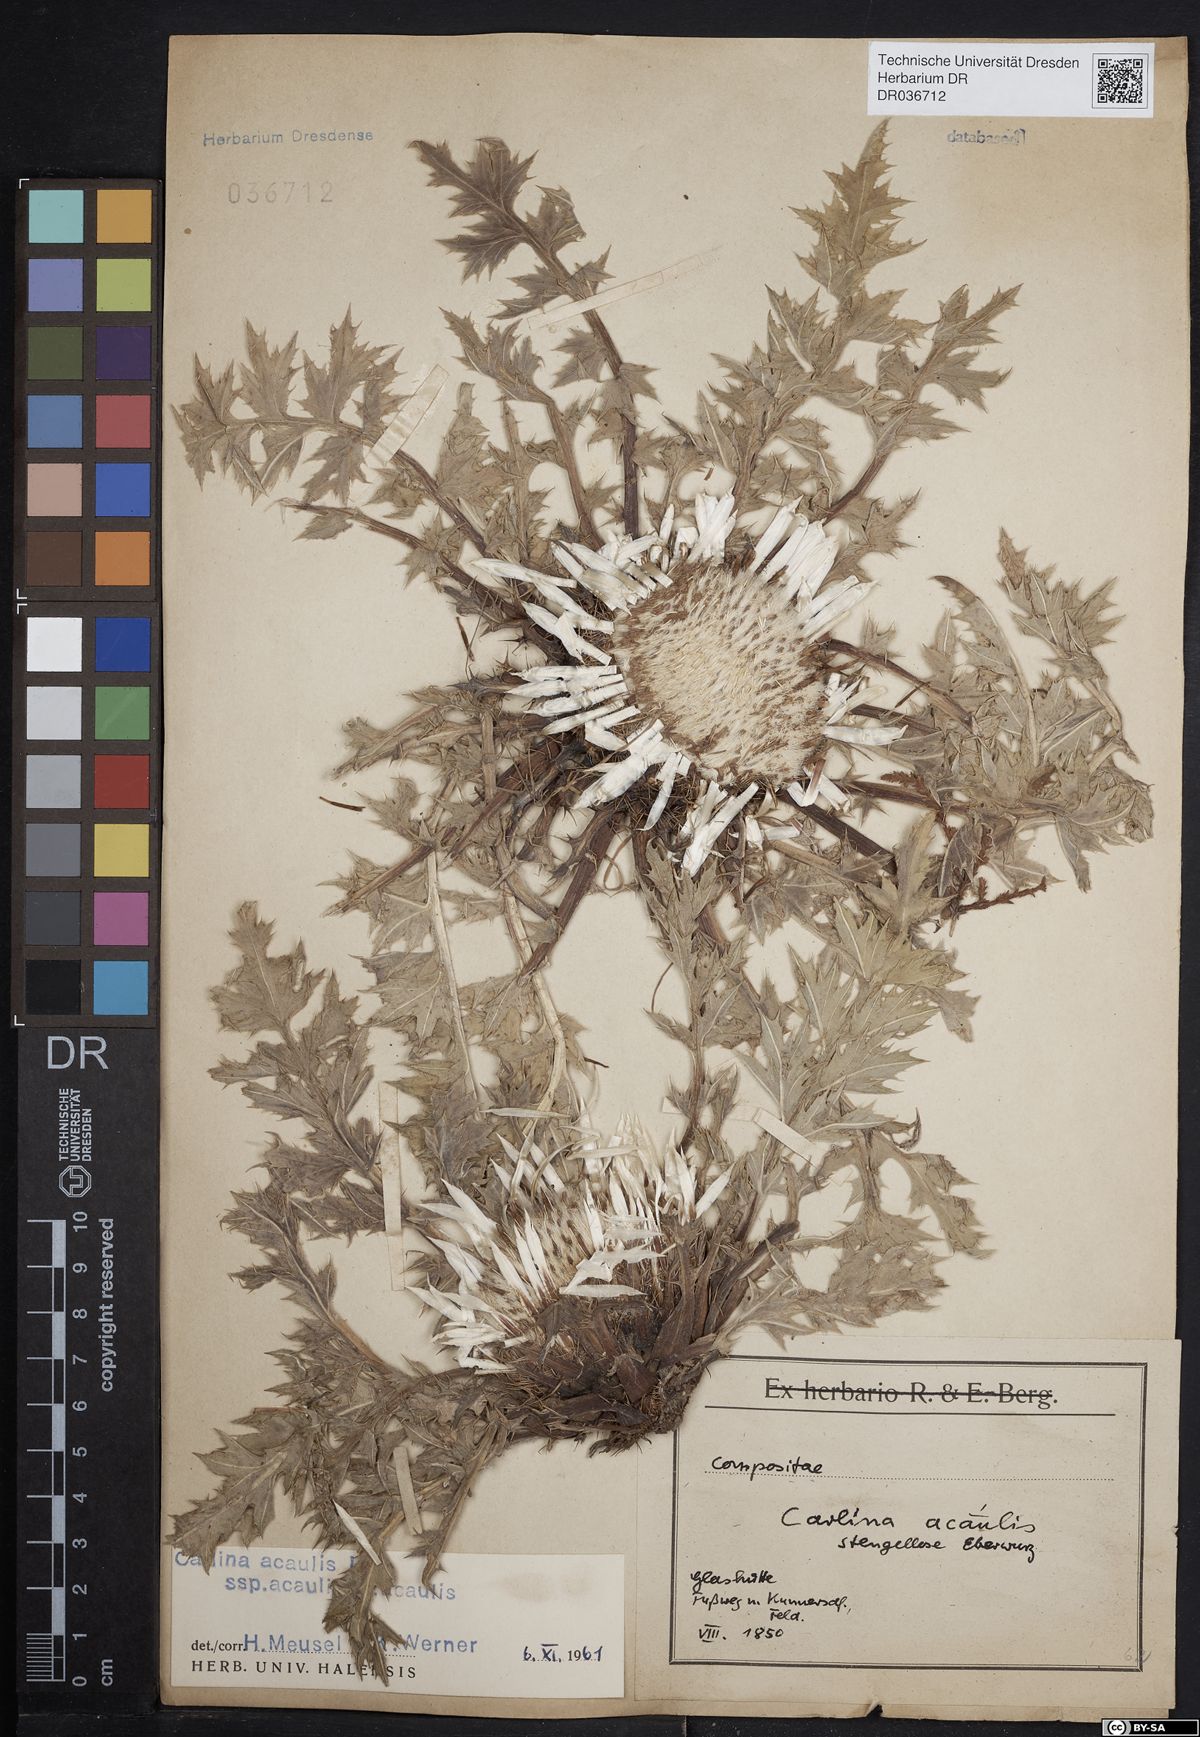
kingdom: Plantae
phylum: Tracheophyta
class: Magnoliopsida
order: Asterales
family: Asteraceae
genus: Carlina
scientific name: Carlina acaulis
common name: Stemless carline thistle
